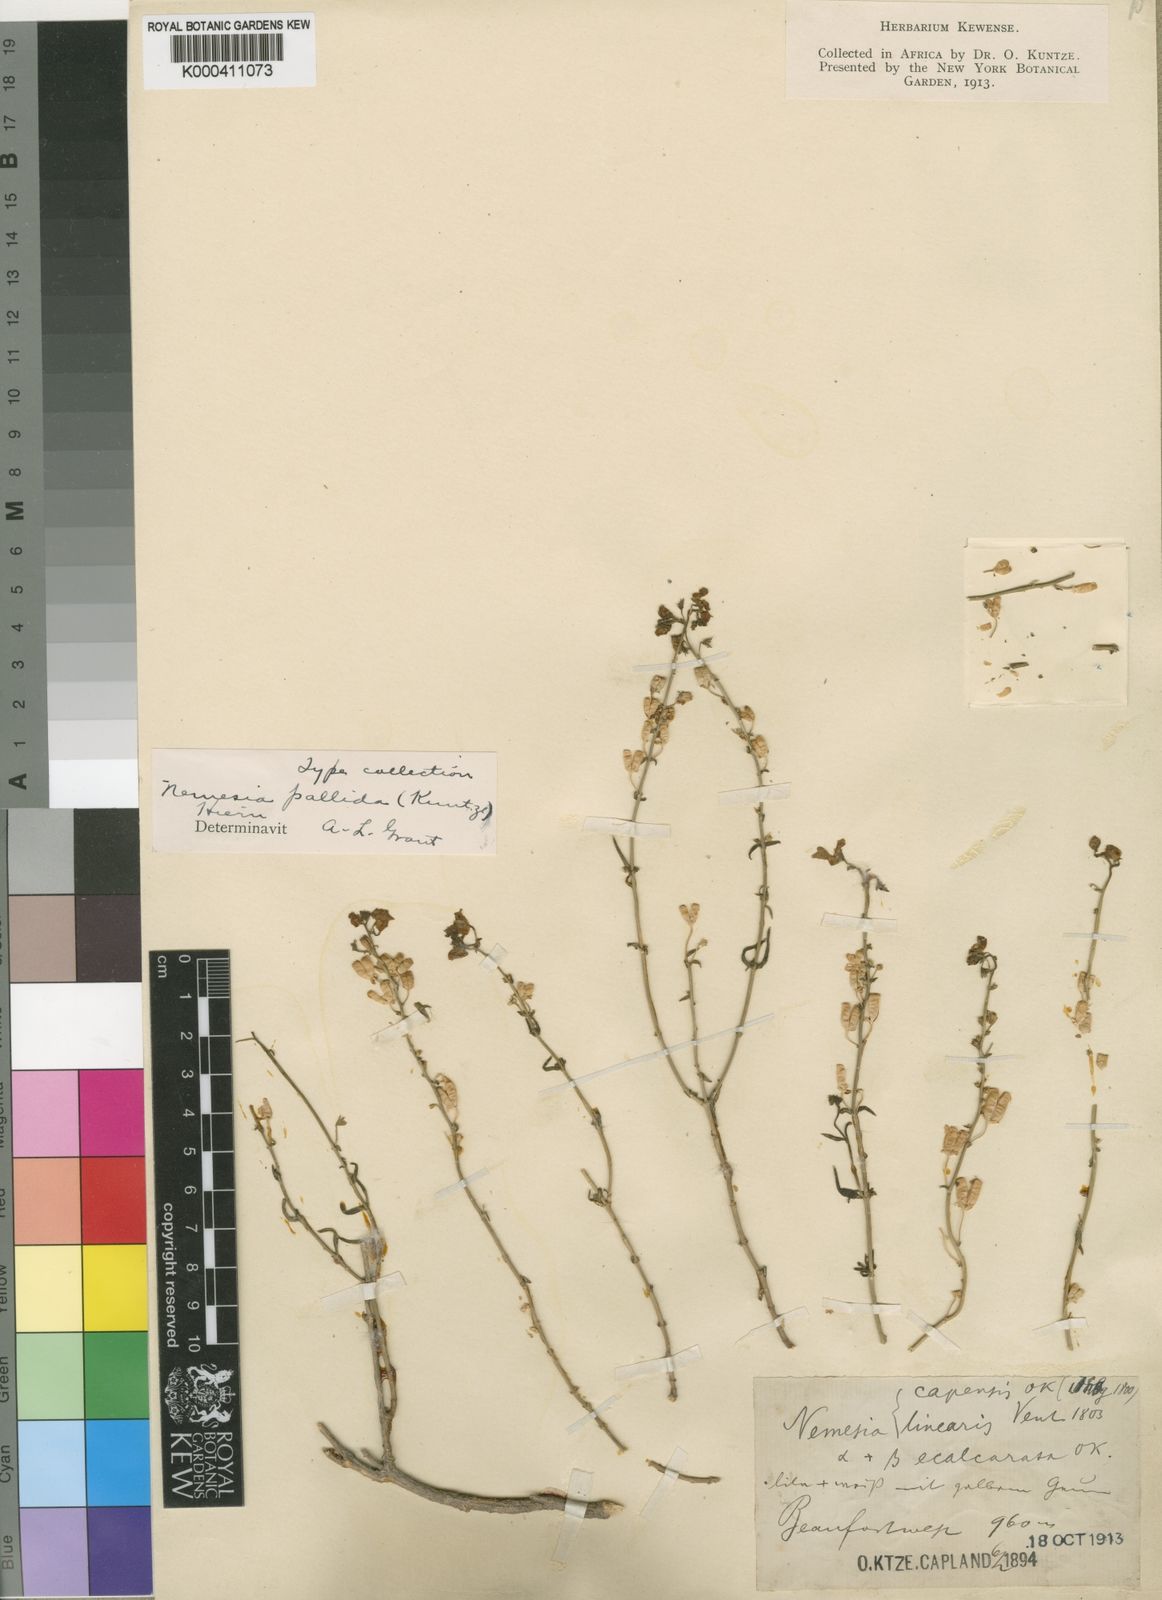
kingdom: Plantae
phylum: Tracheophyta
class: Magnoliopsida
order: Lamiales
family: Scrophulariaceae
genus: Nemesia
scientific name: Nemesia pallida
